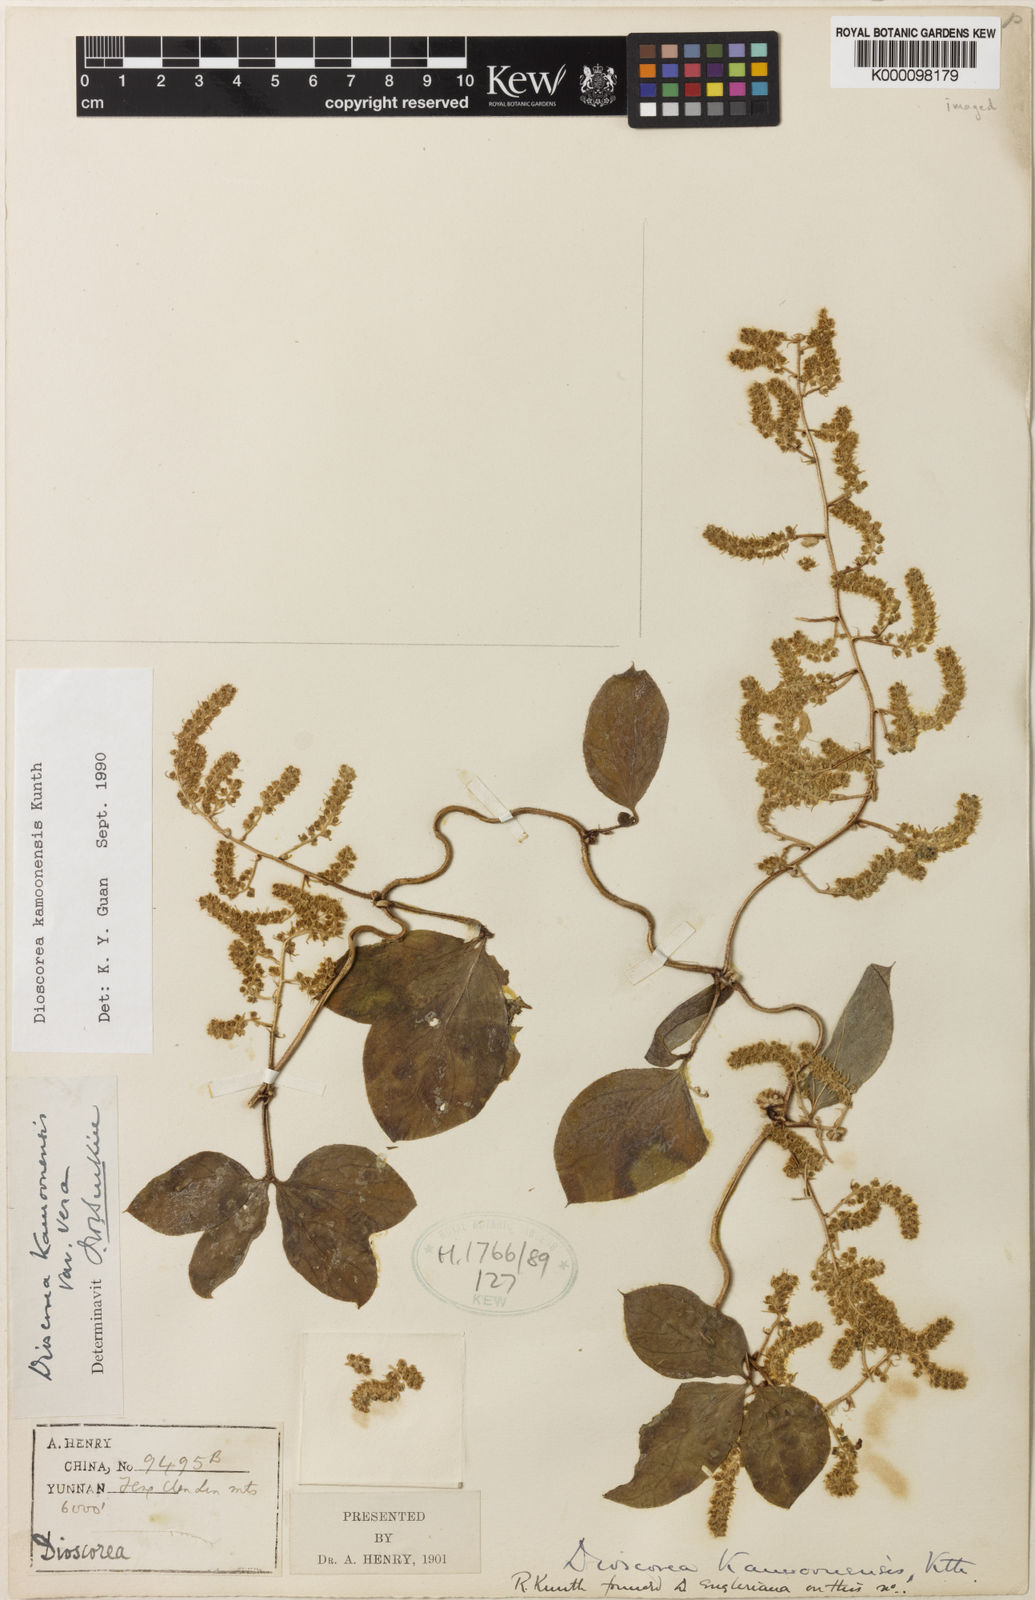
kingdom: Plantae
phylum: Tracheophyta
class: Liliopsida
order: Dioscoreales
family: Dioscoreaceae
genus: Dioscorea
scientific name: Dioscorea kamoonensis
